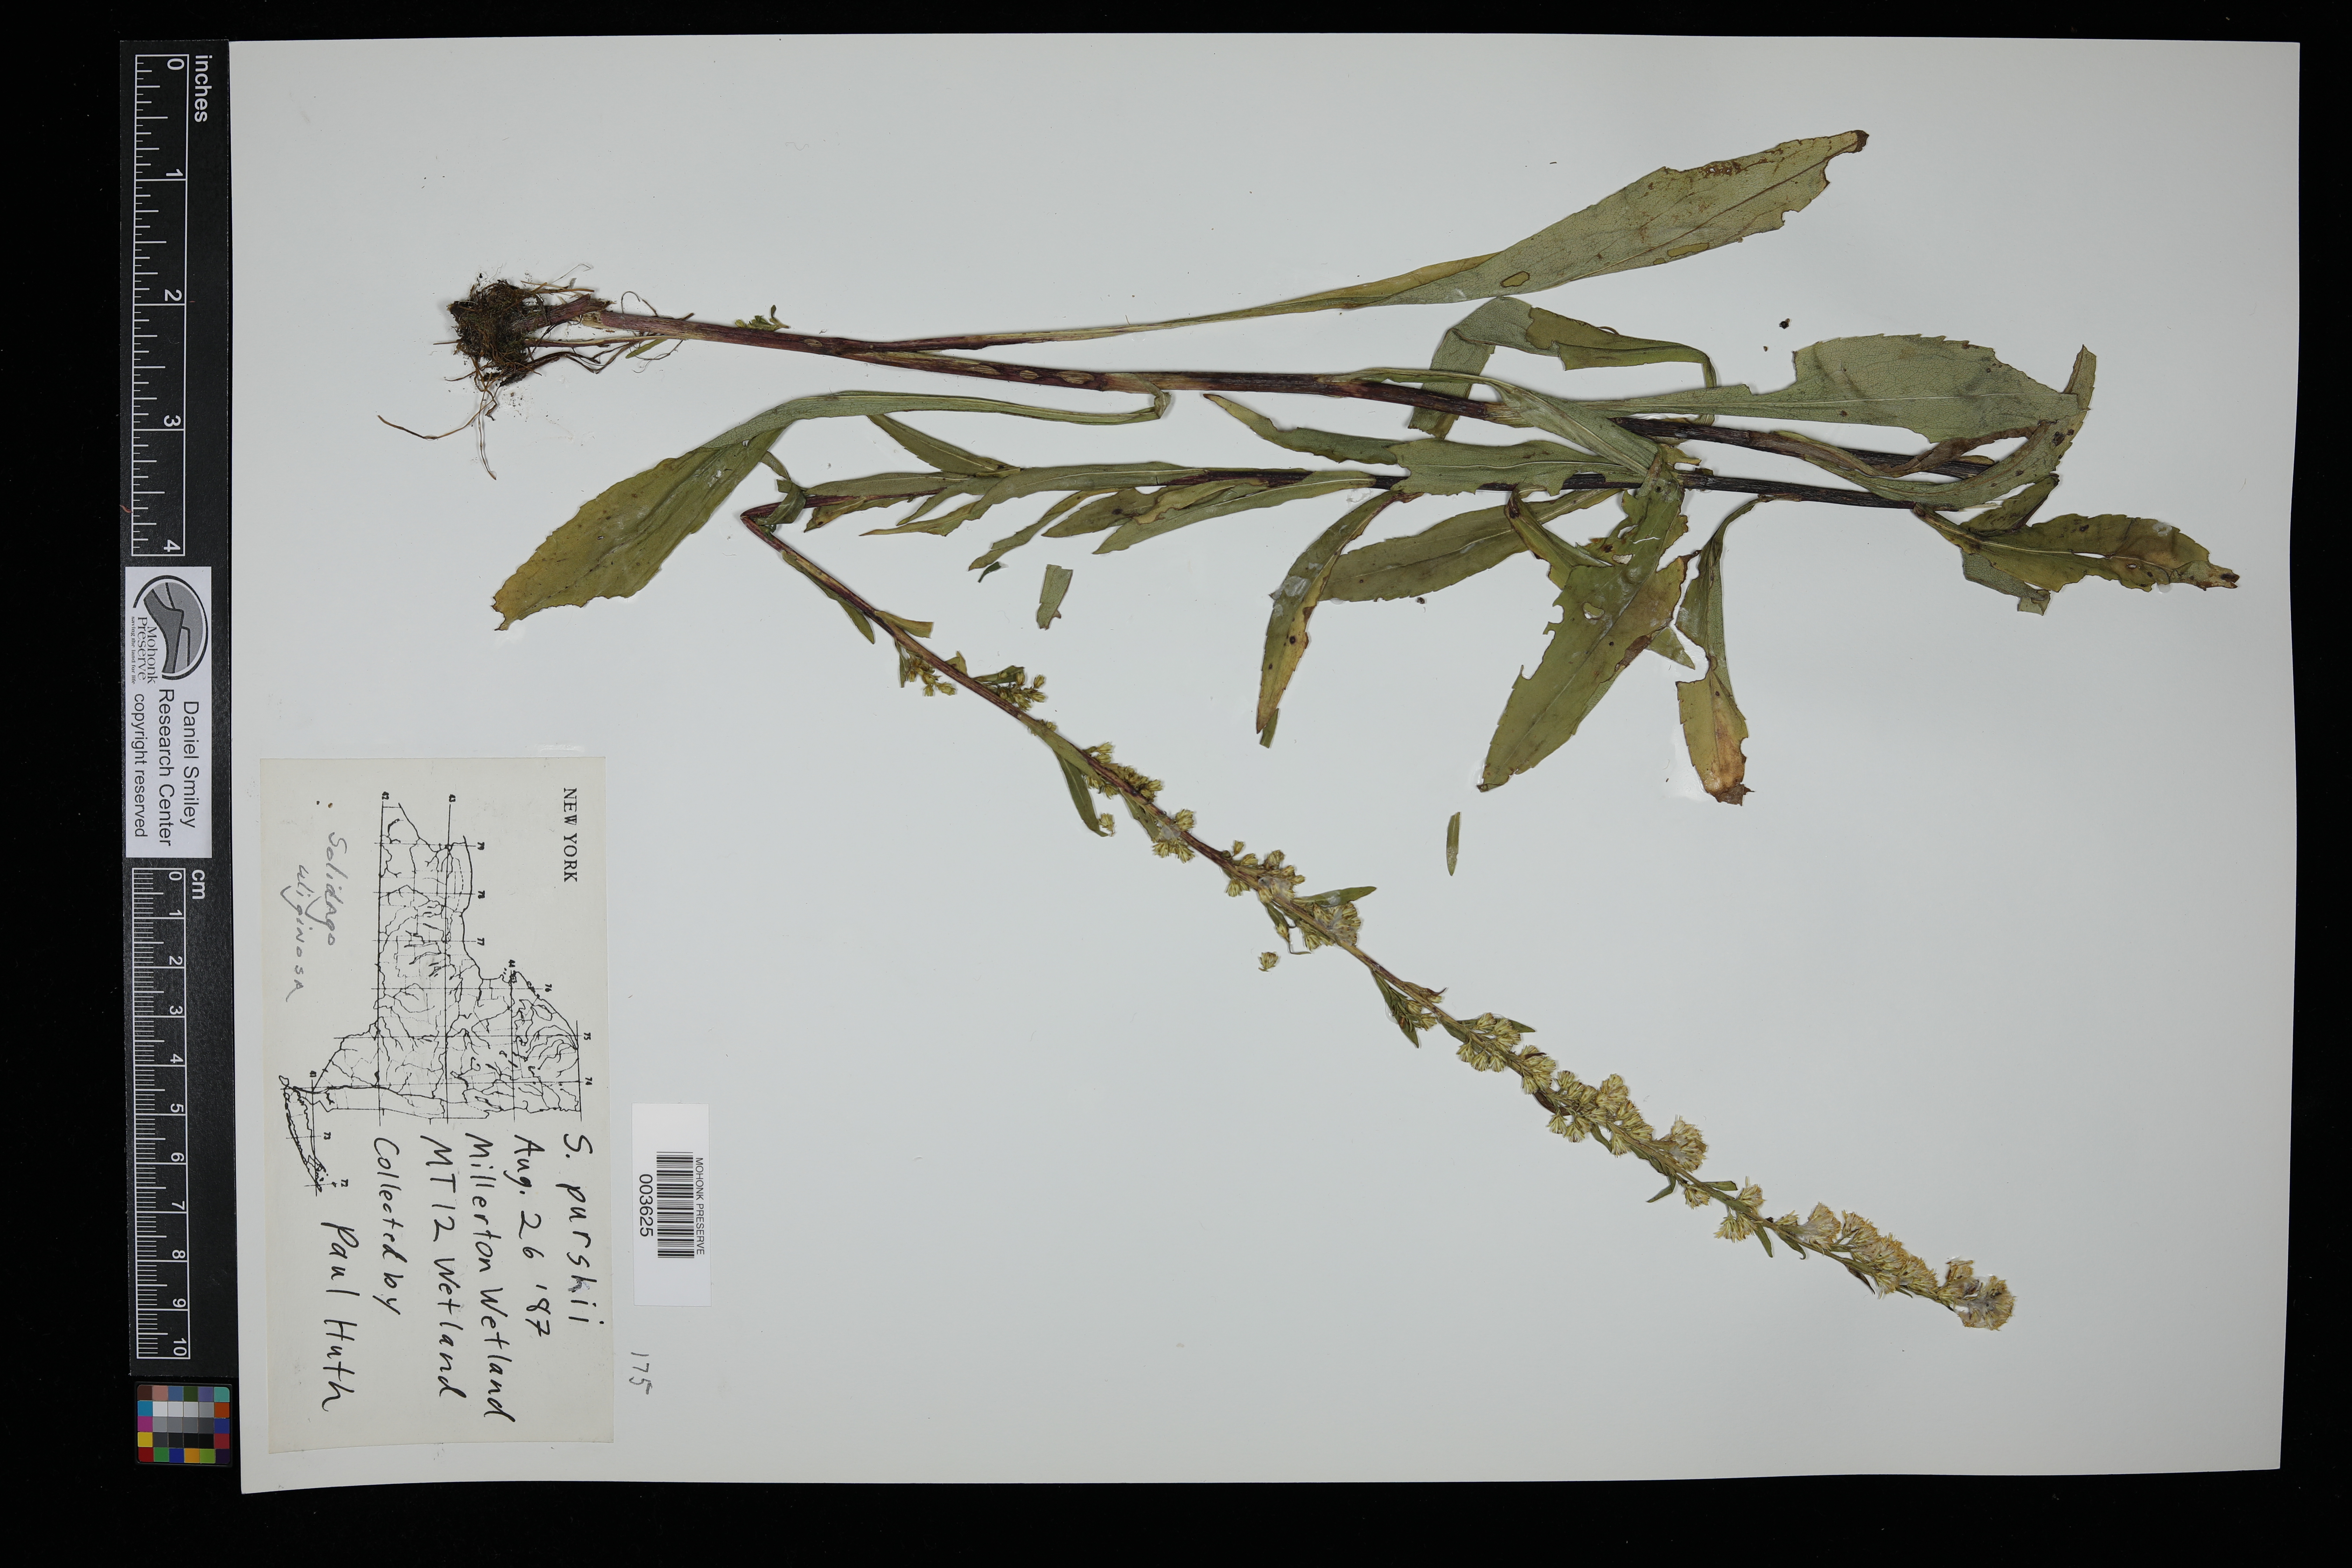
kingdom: Plantae
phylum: Tracheophyta
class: Magnoliopsida
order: Asterales
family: Asteraceae
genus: Solidago
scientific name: Solidago uliginosa
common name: Bog goldenrod
